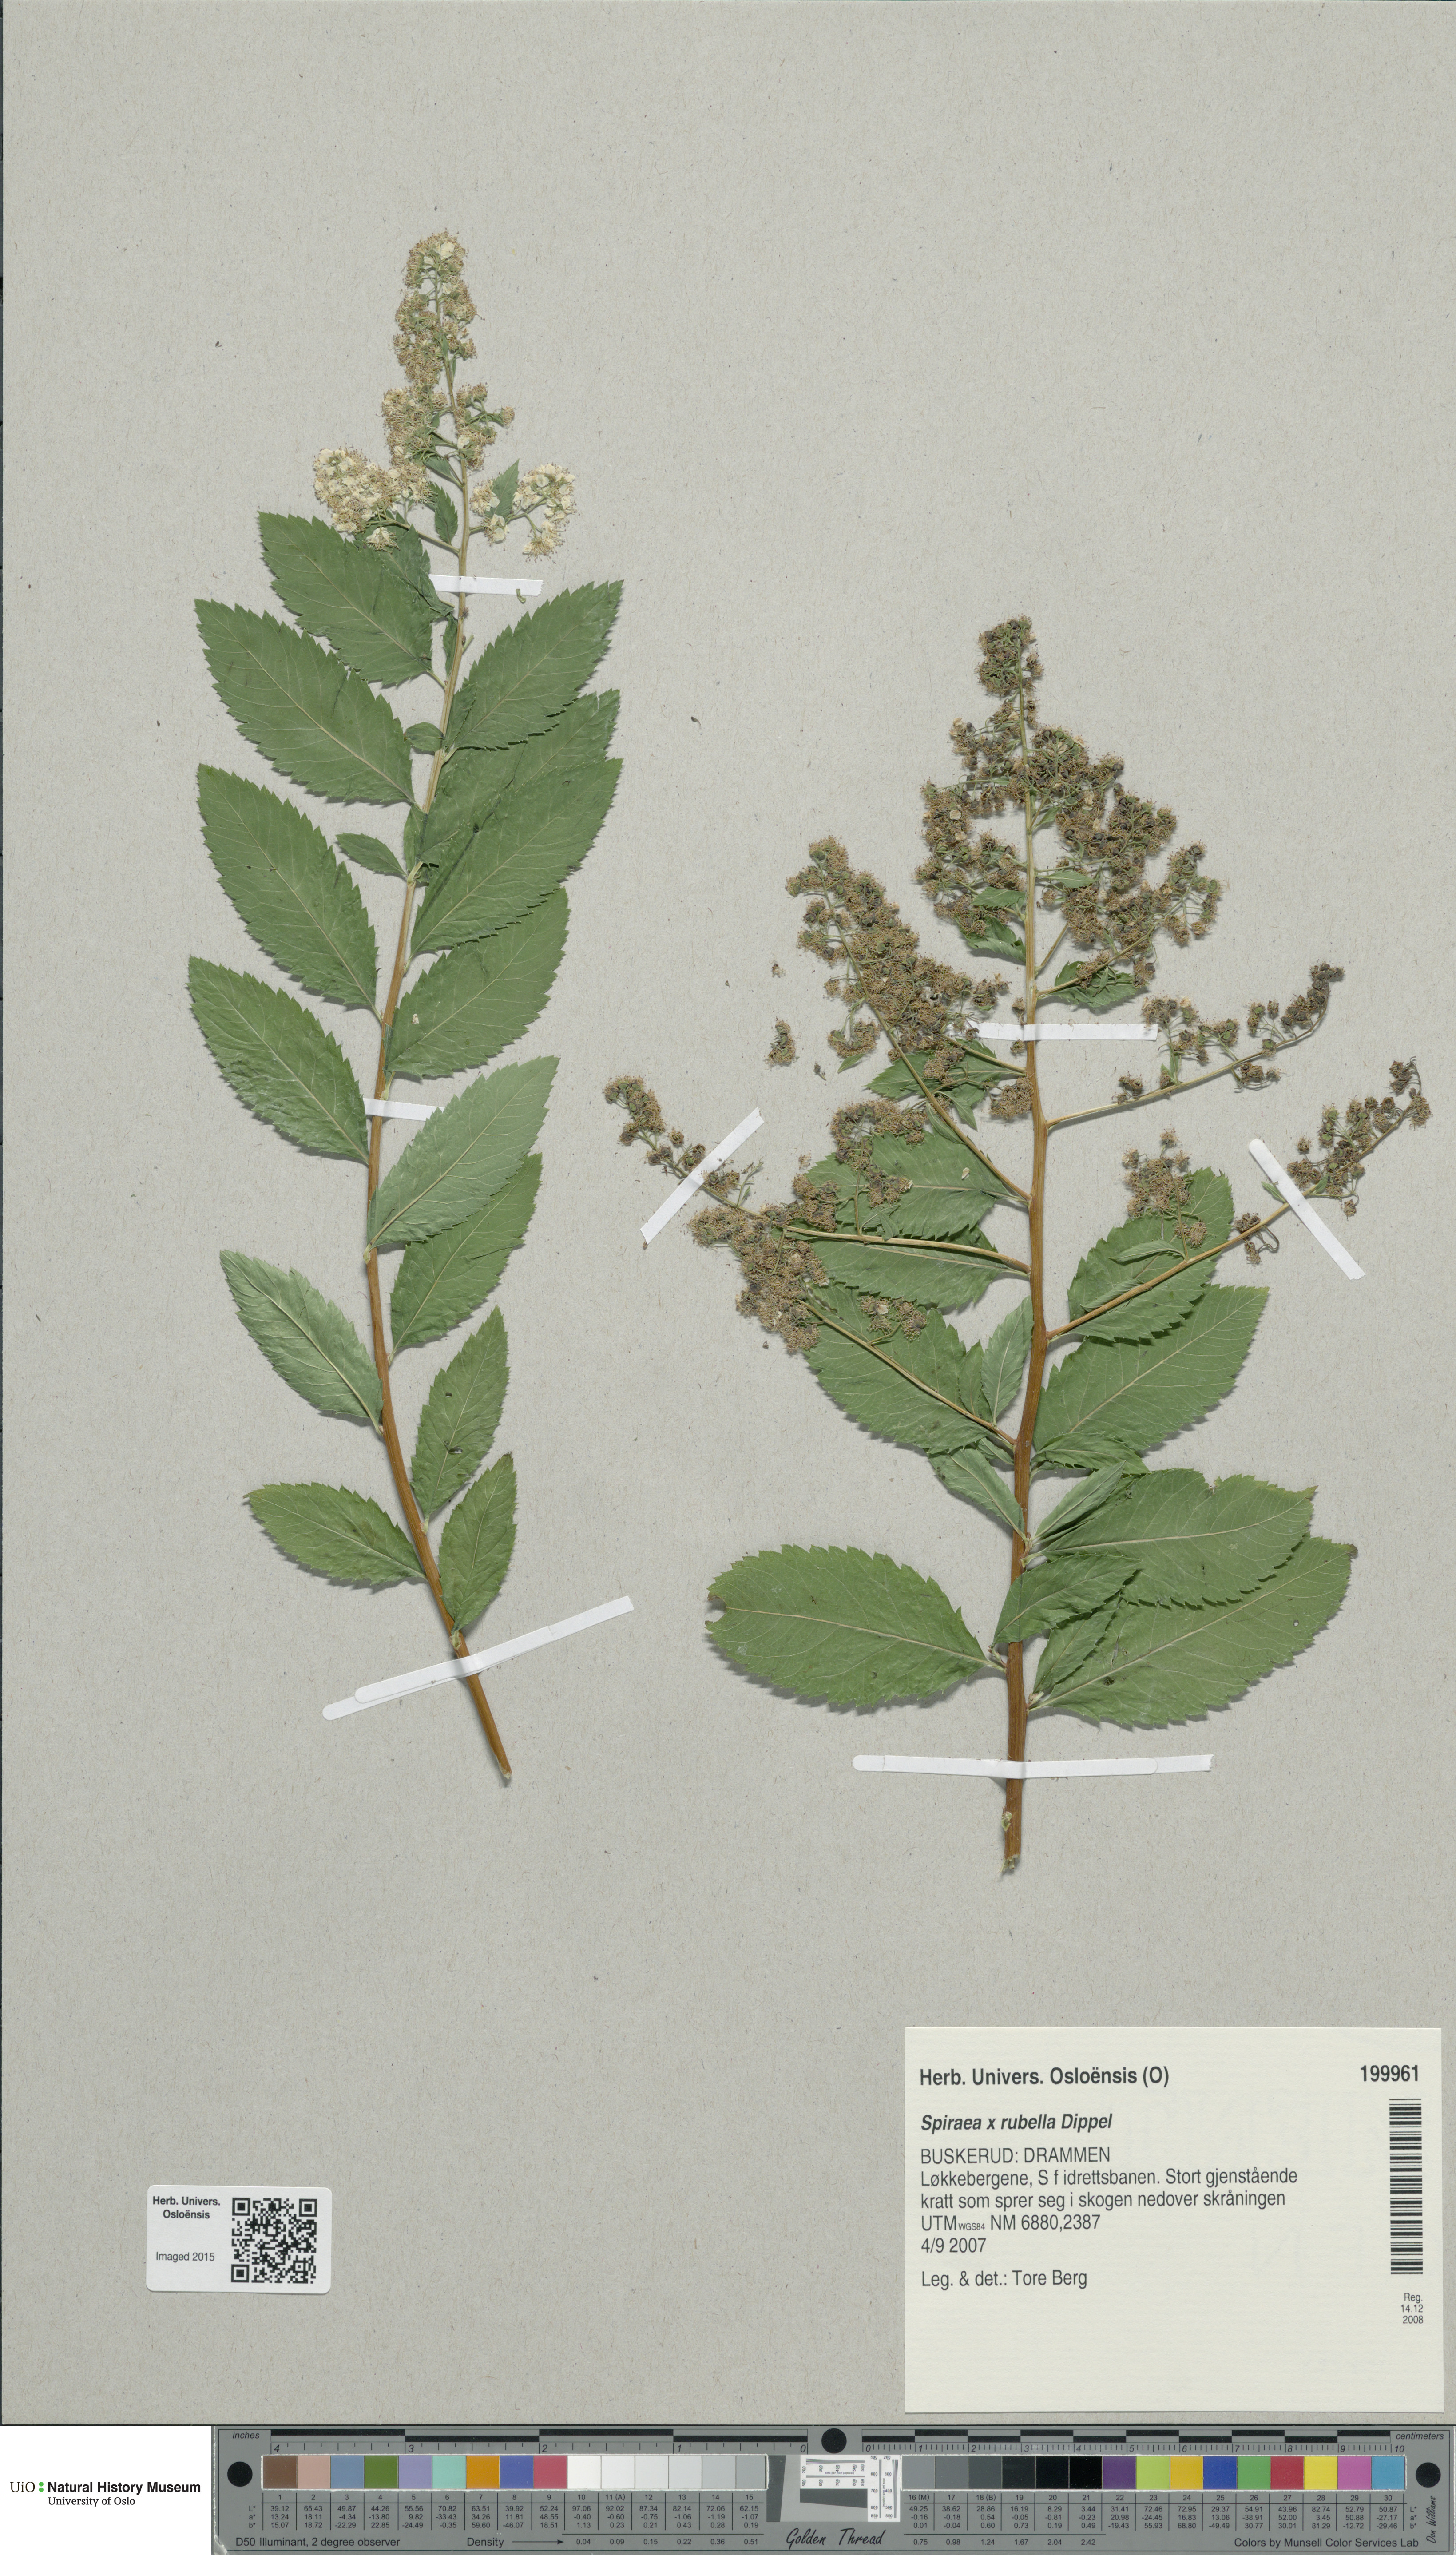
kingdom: Plantae
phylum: Tracheophyta
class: Magnoliopsida
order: Rosales
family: Rosaceae
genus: Spiraea
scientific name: Spiraea rosalba
